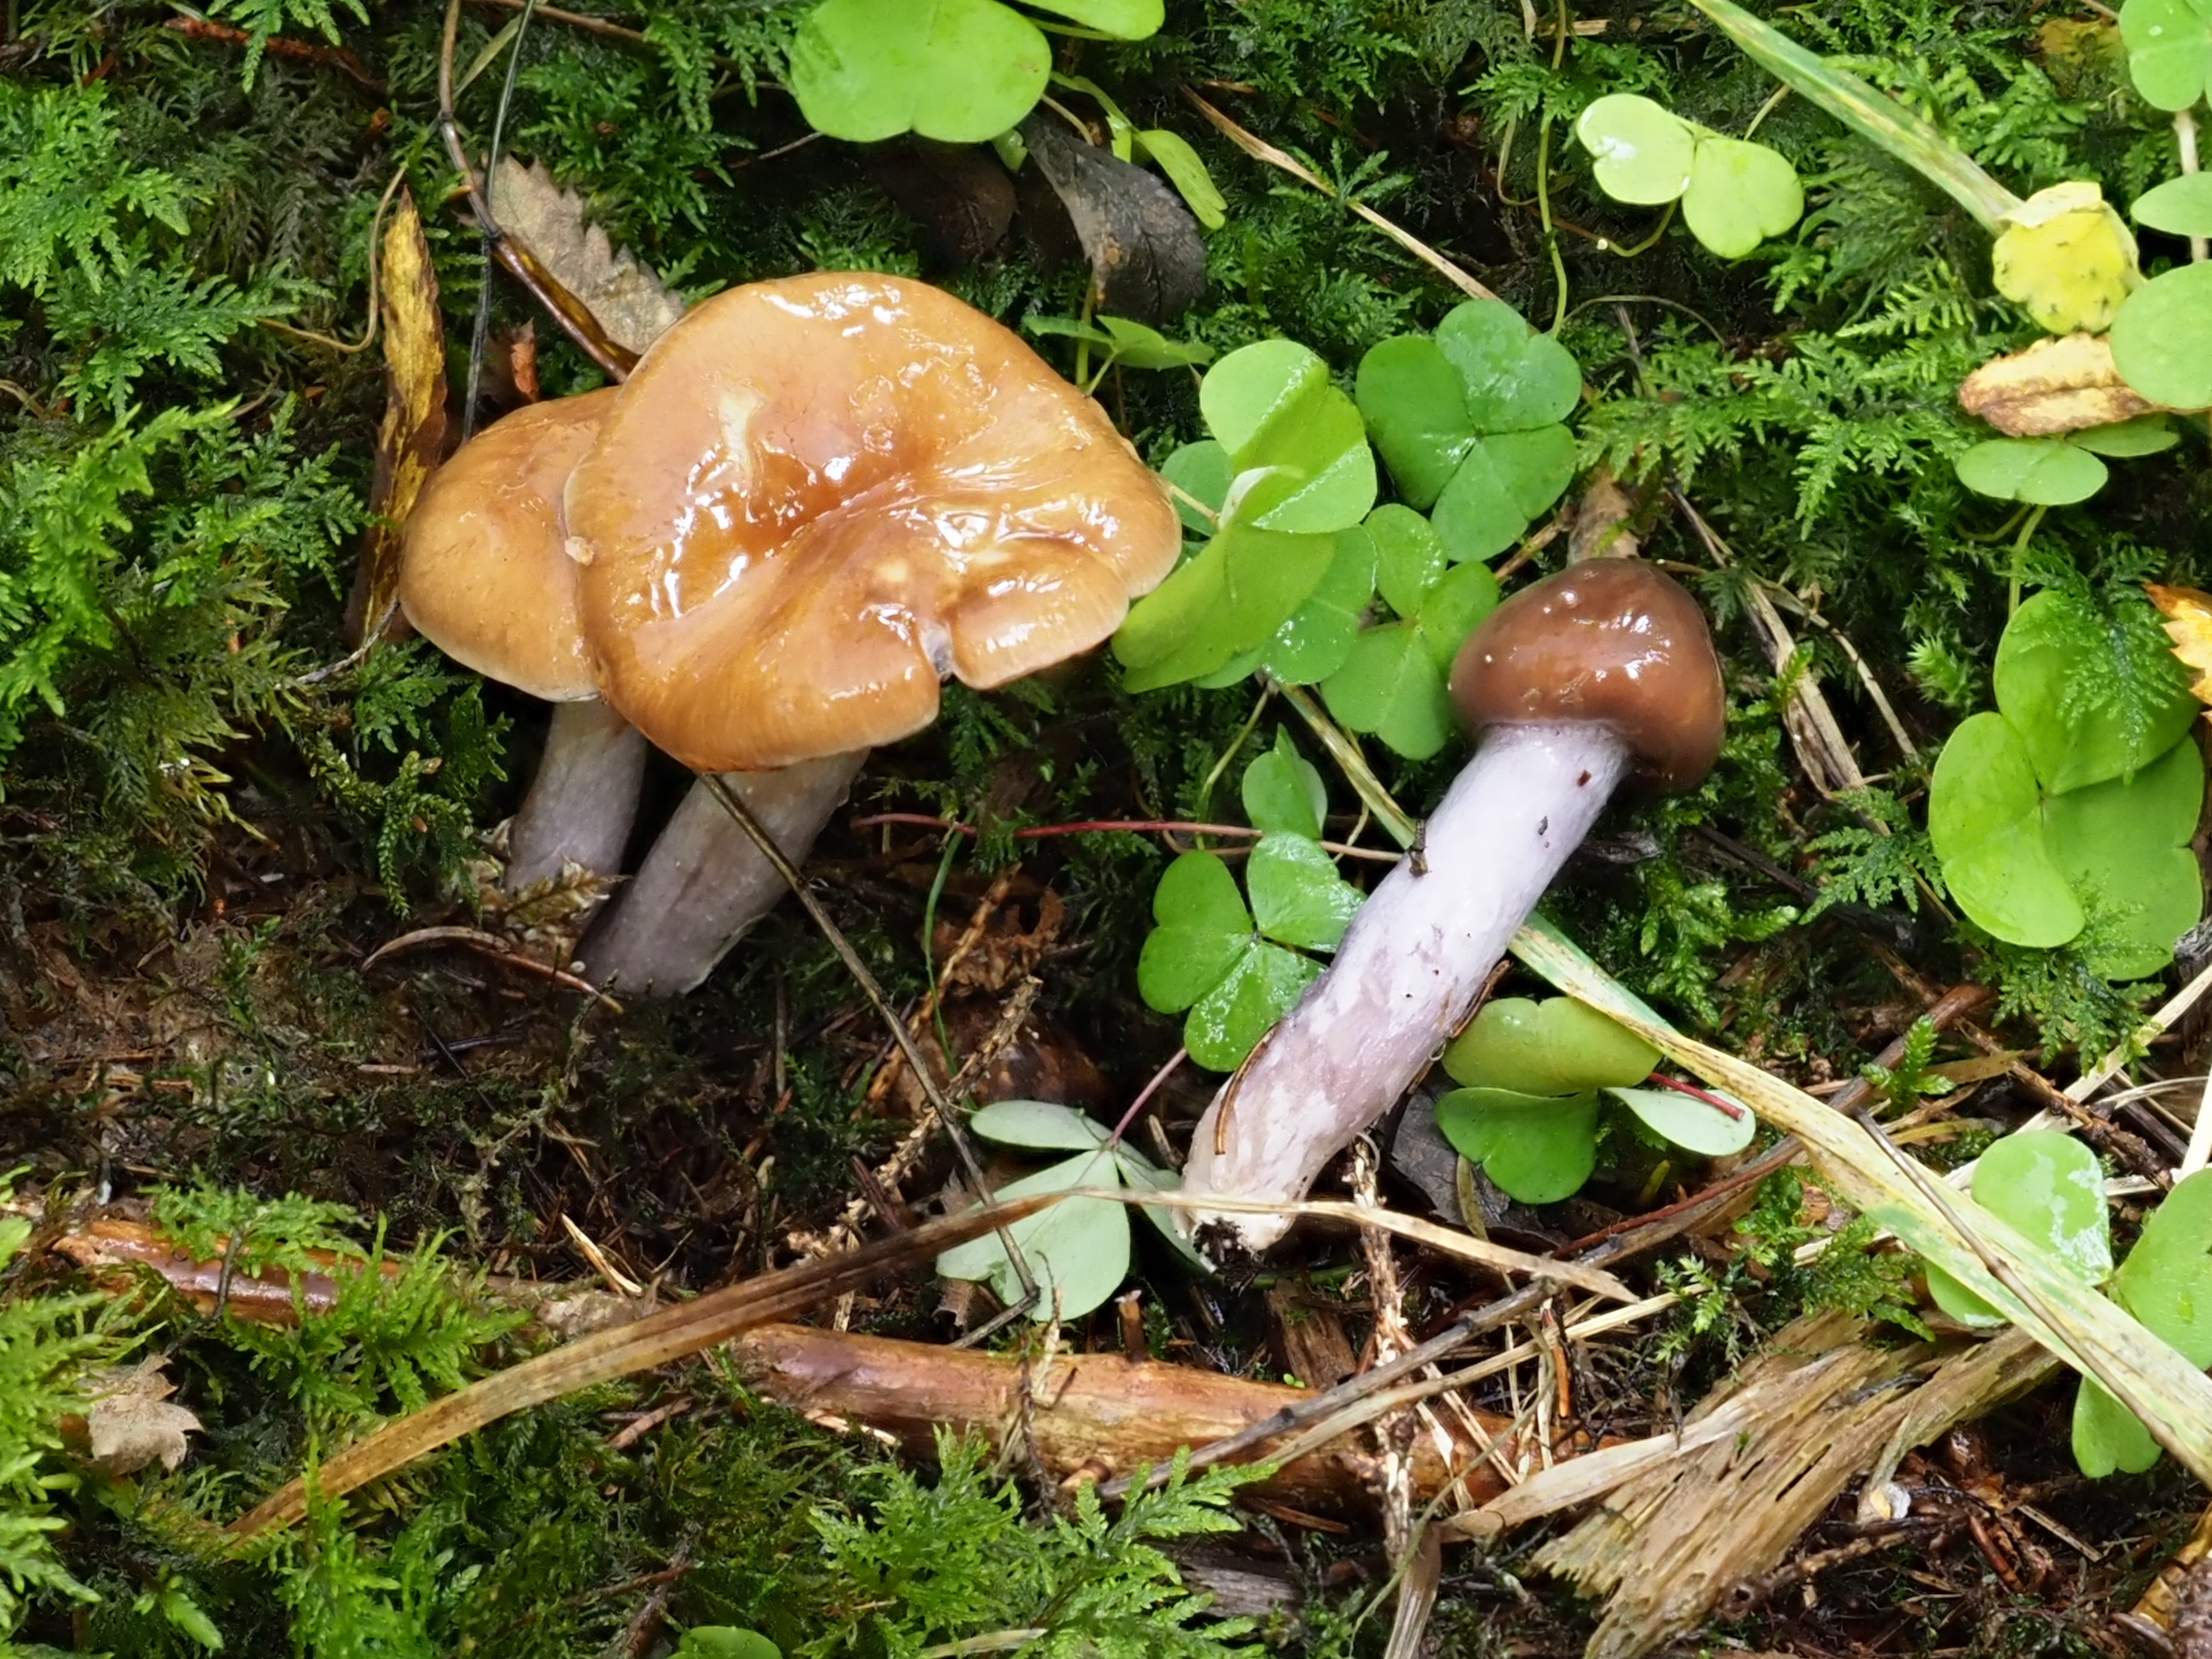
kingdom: Fungi
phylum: Basidiomycota
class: Agaricomycetes
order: Agaricales
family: Cortinariaceae
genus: Cortinarius
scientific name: Cortinarius collinitus
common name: Blue-girdled webcap
